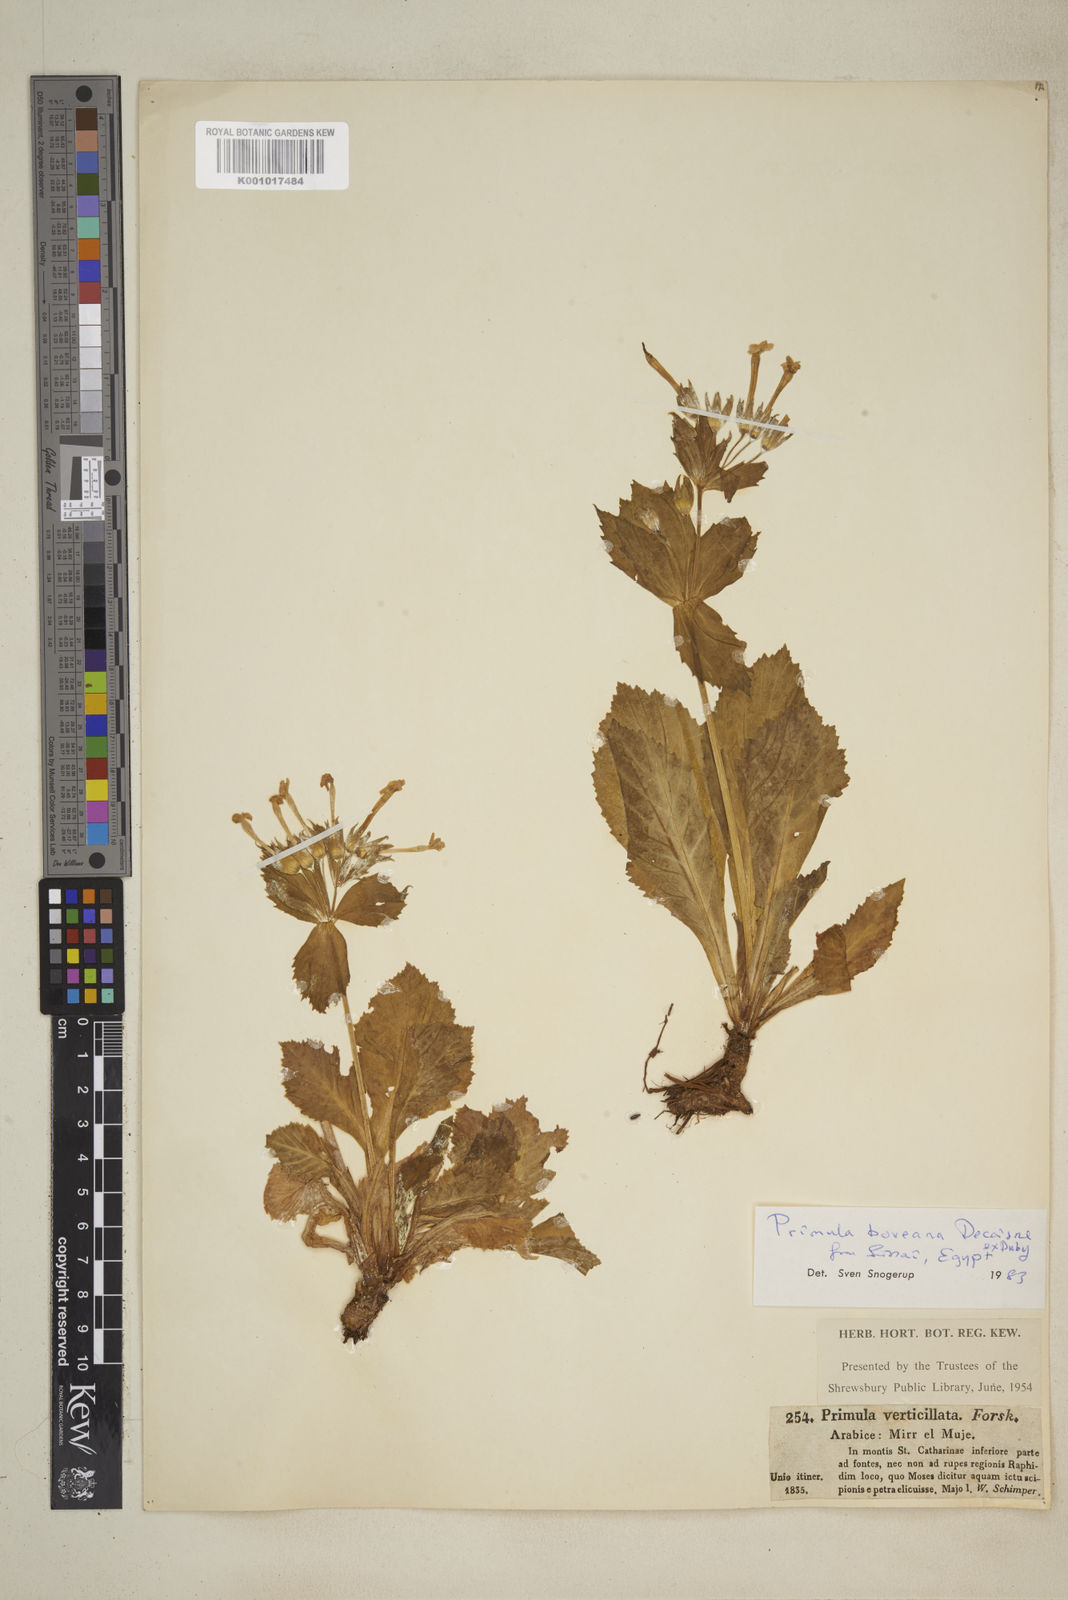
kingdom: Plantae
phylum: Tracheophyta
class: Magnoliopsida
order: Ericales
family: Primulaceae
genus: Evotrochis
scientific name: Evotrochis involucrata
